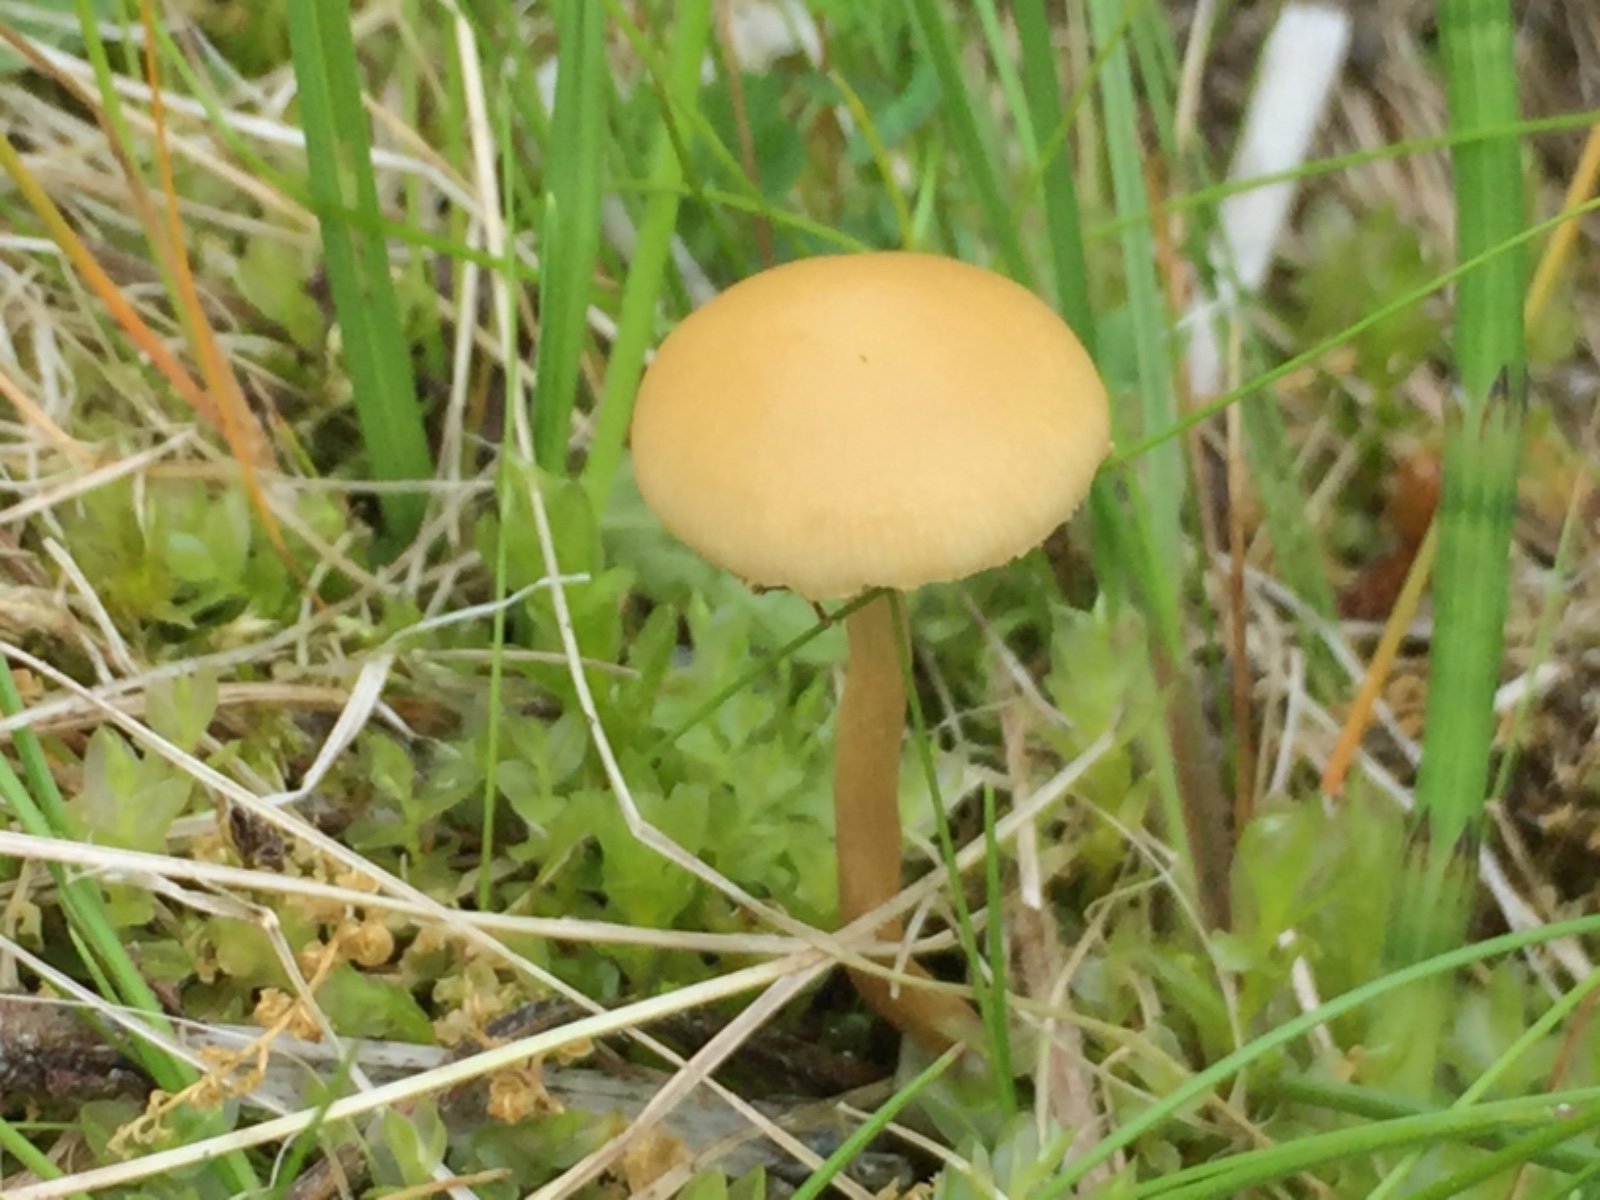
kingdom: Fungi
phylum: Basidiomycota
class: Agaricomycetes
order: Agaricales
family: Strophariaceae
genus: Agrocybe
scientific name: Agrocybe elatella
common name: mose-agerhat
